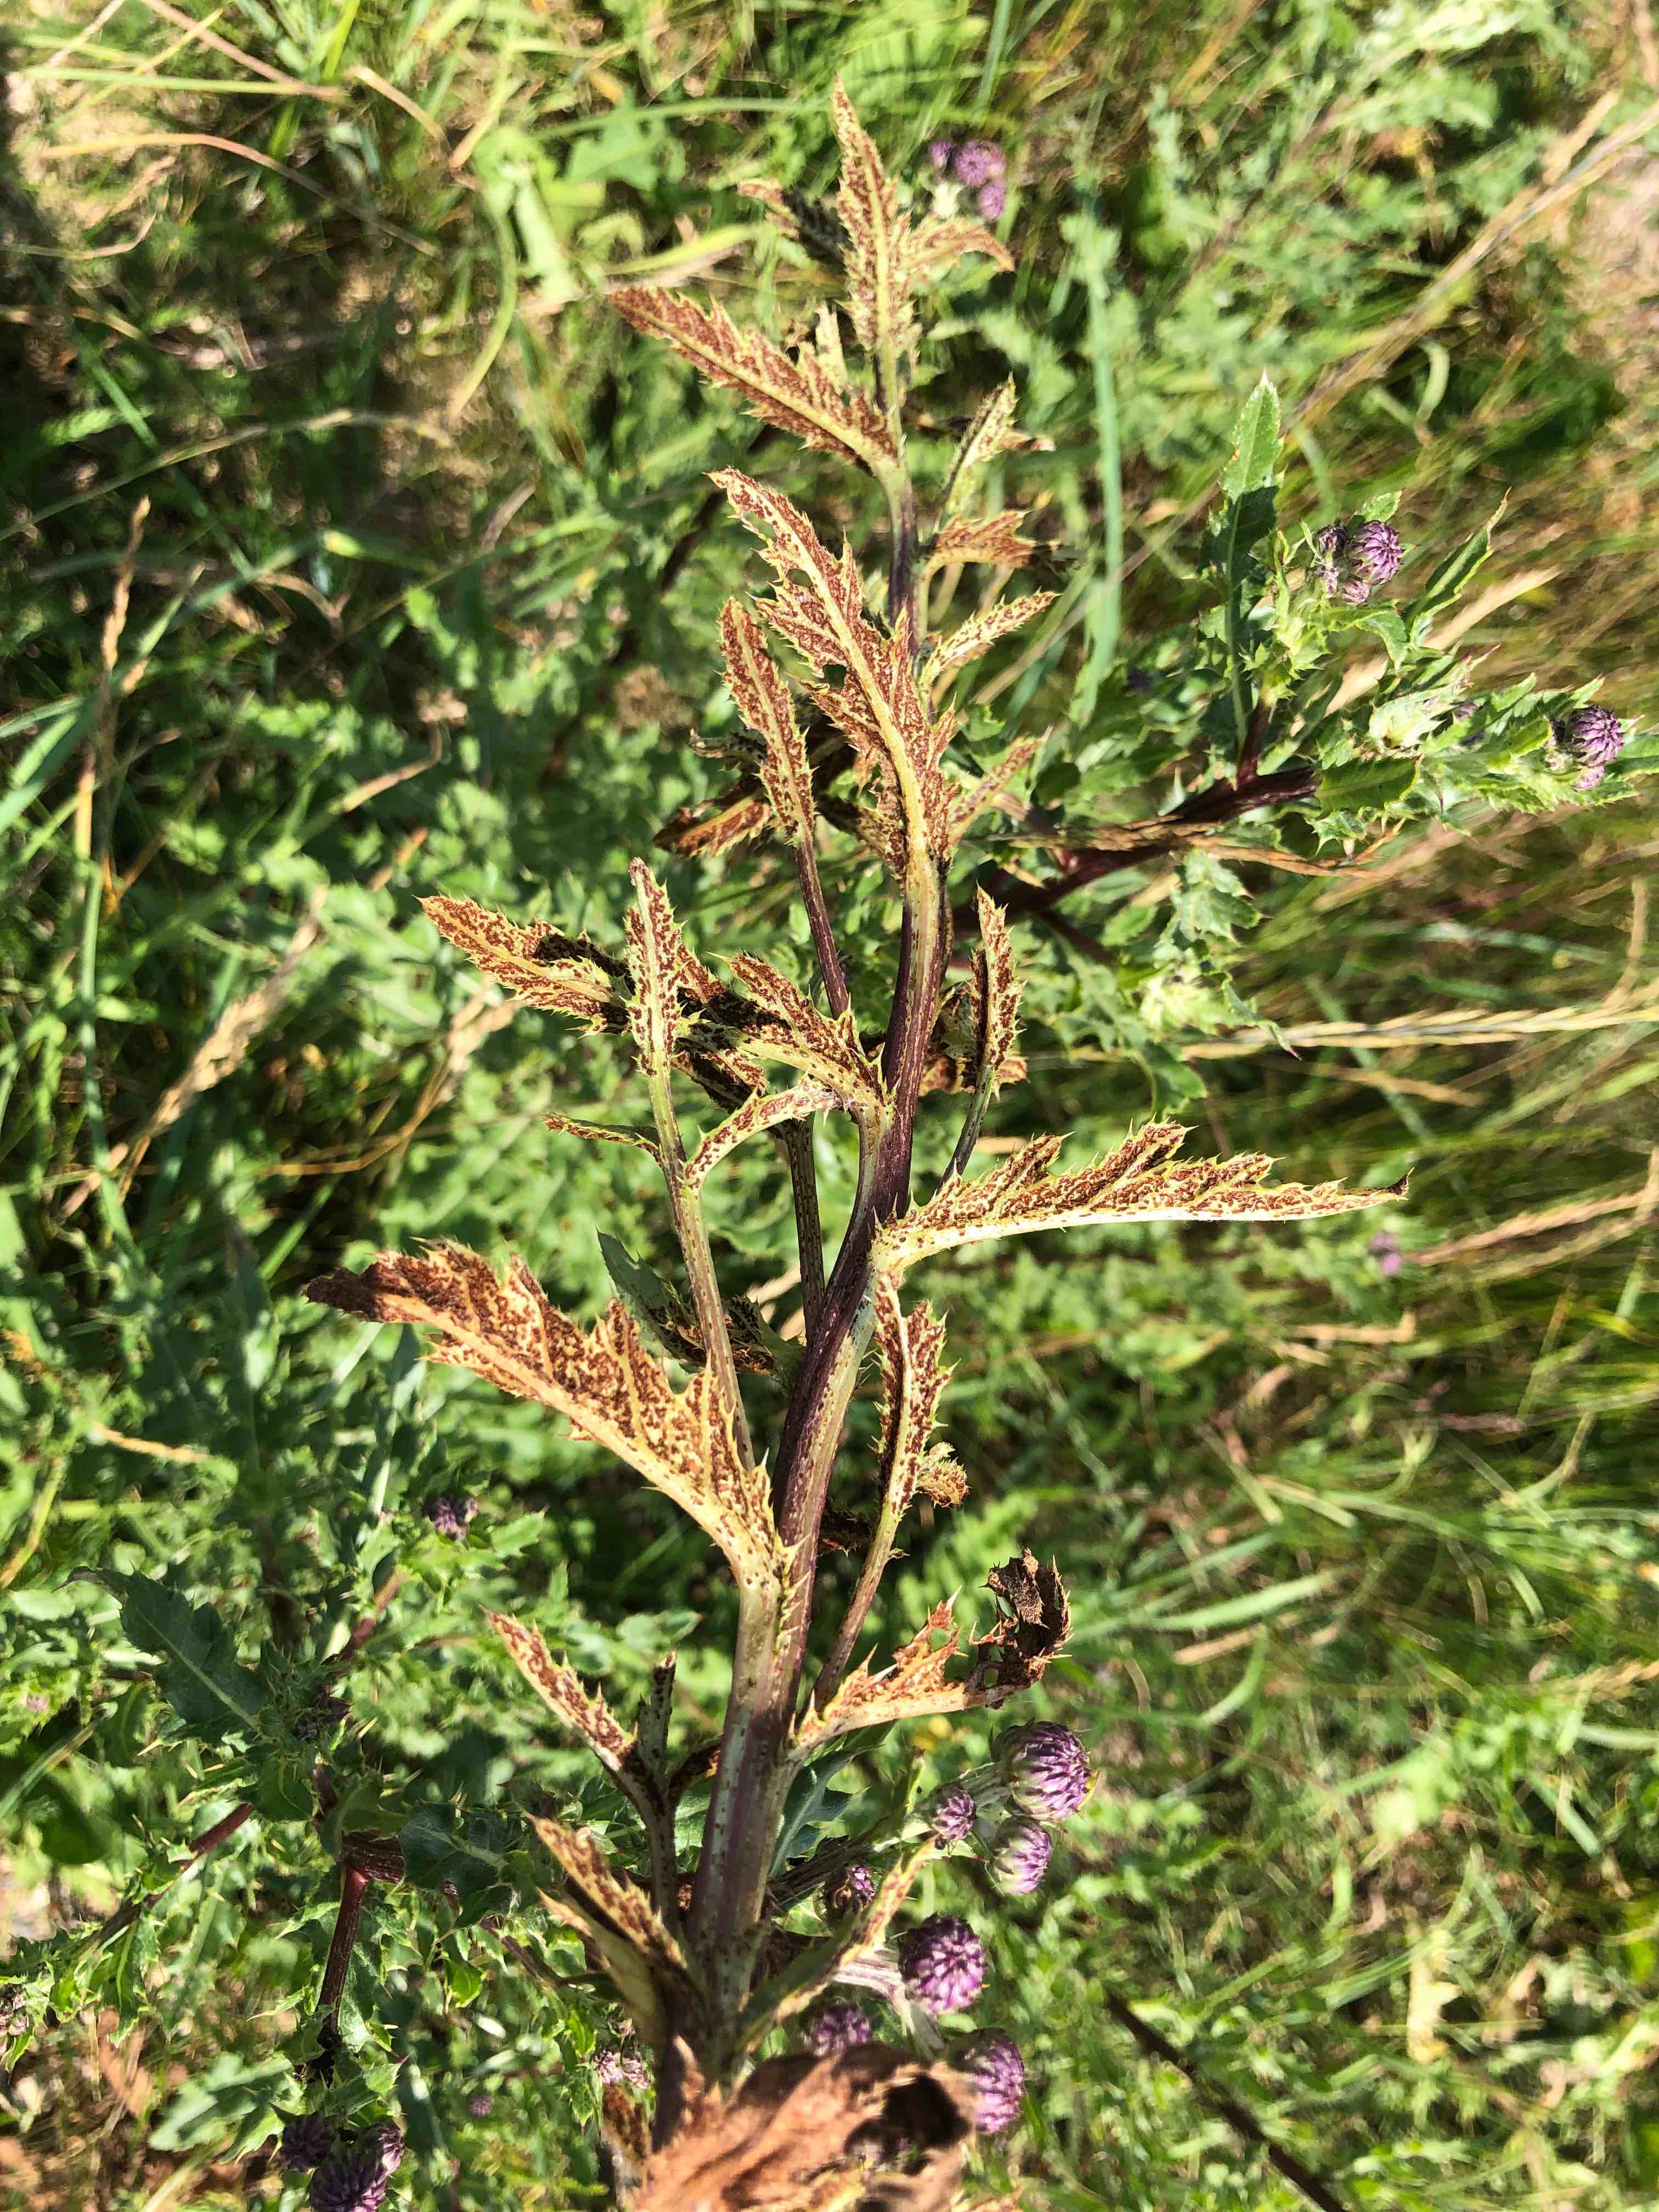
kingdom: Fungi
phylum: Basidiomycota
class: Pucciniomycetes
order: Pucciniales
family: Pucciniaceae
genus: Puccinia
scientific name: Puccinia suaveolens
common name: tidsel-tvecellerust
